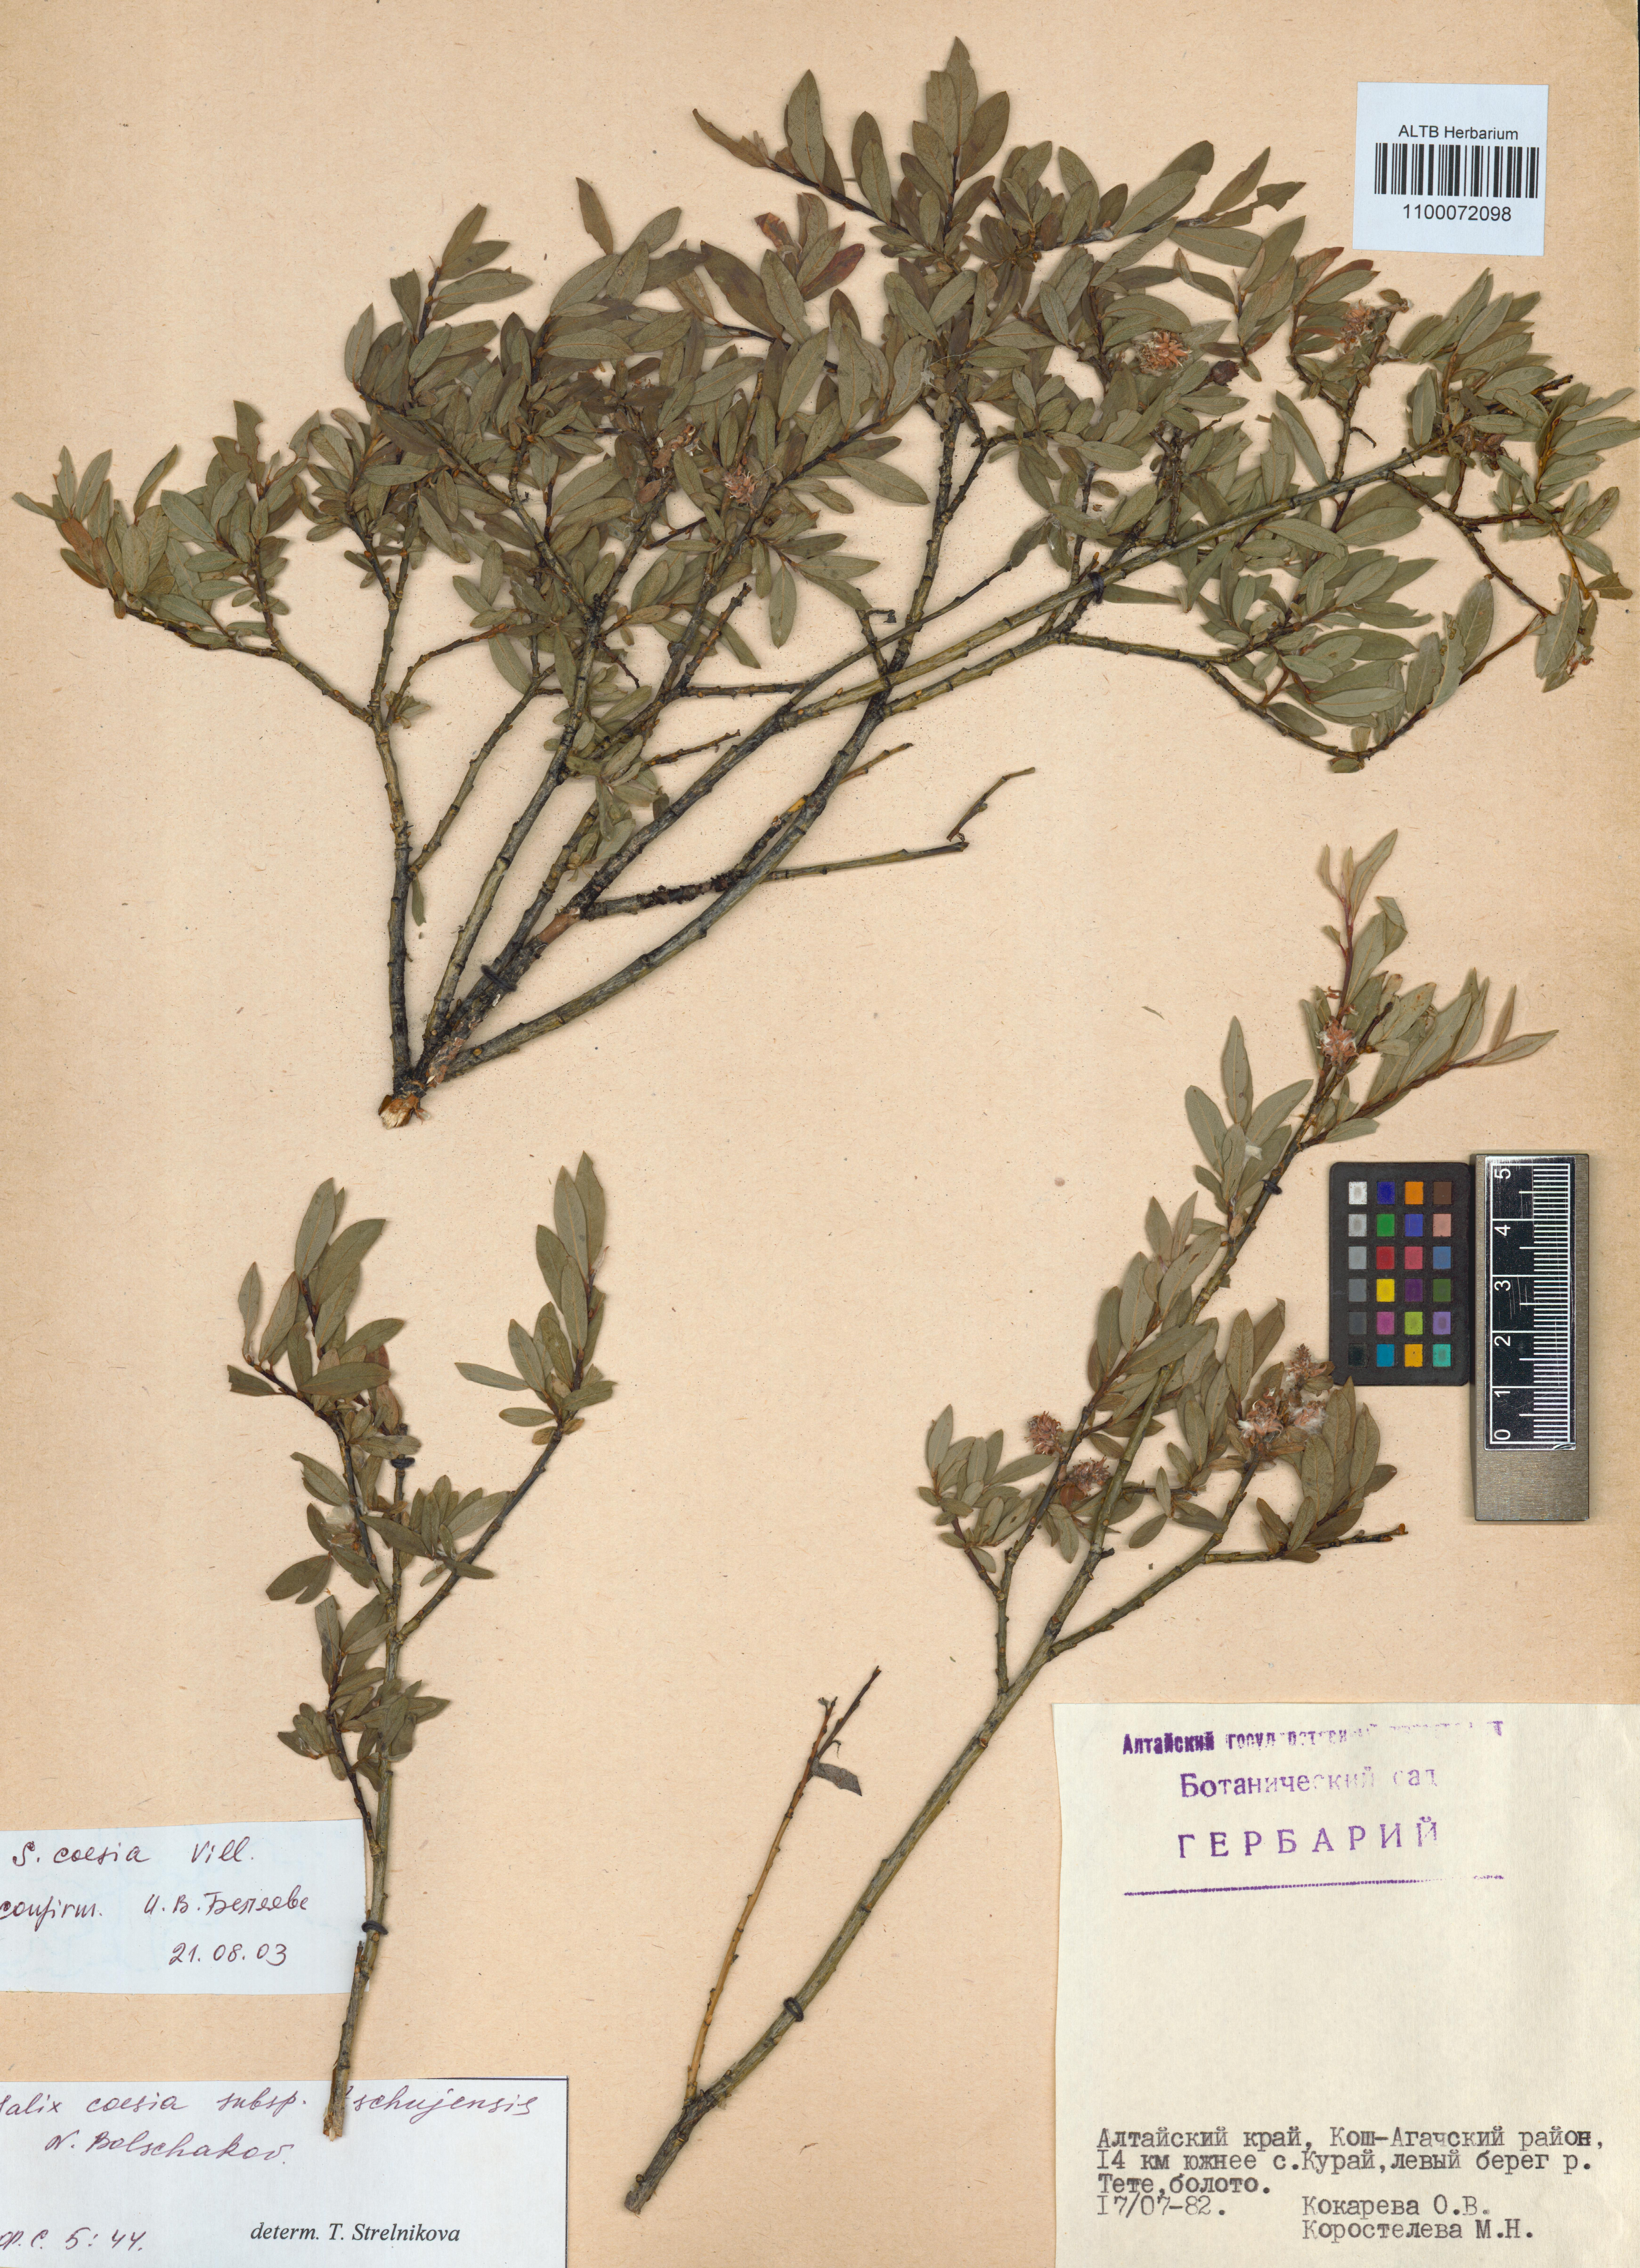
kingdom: Plantae
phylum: Tracheophyta
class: Magnoliopsida
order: Malpighiales
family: Salicaceae
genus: Salix
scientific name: Salix caesia
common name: Blue willow
